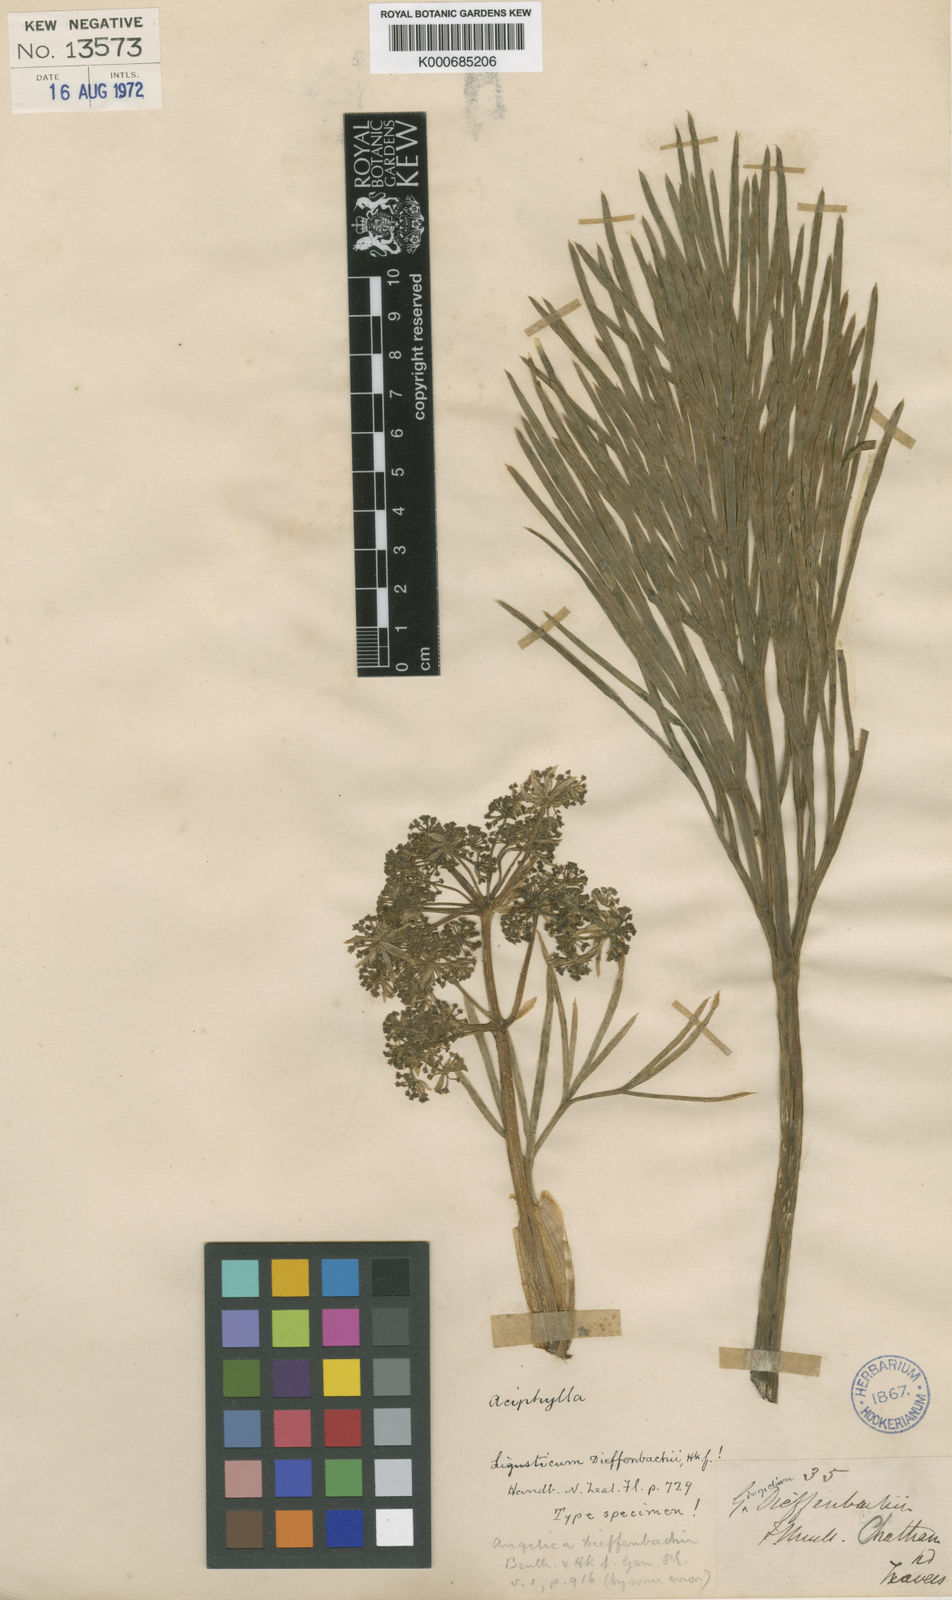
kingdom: Plantae
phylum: Tracheophyta
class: Magnoliopsida
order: Apiales
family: Apiaceae
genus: Aciphylla
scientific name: Aciphylla dieffenbachii
